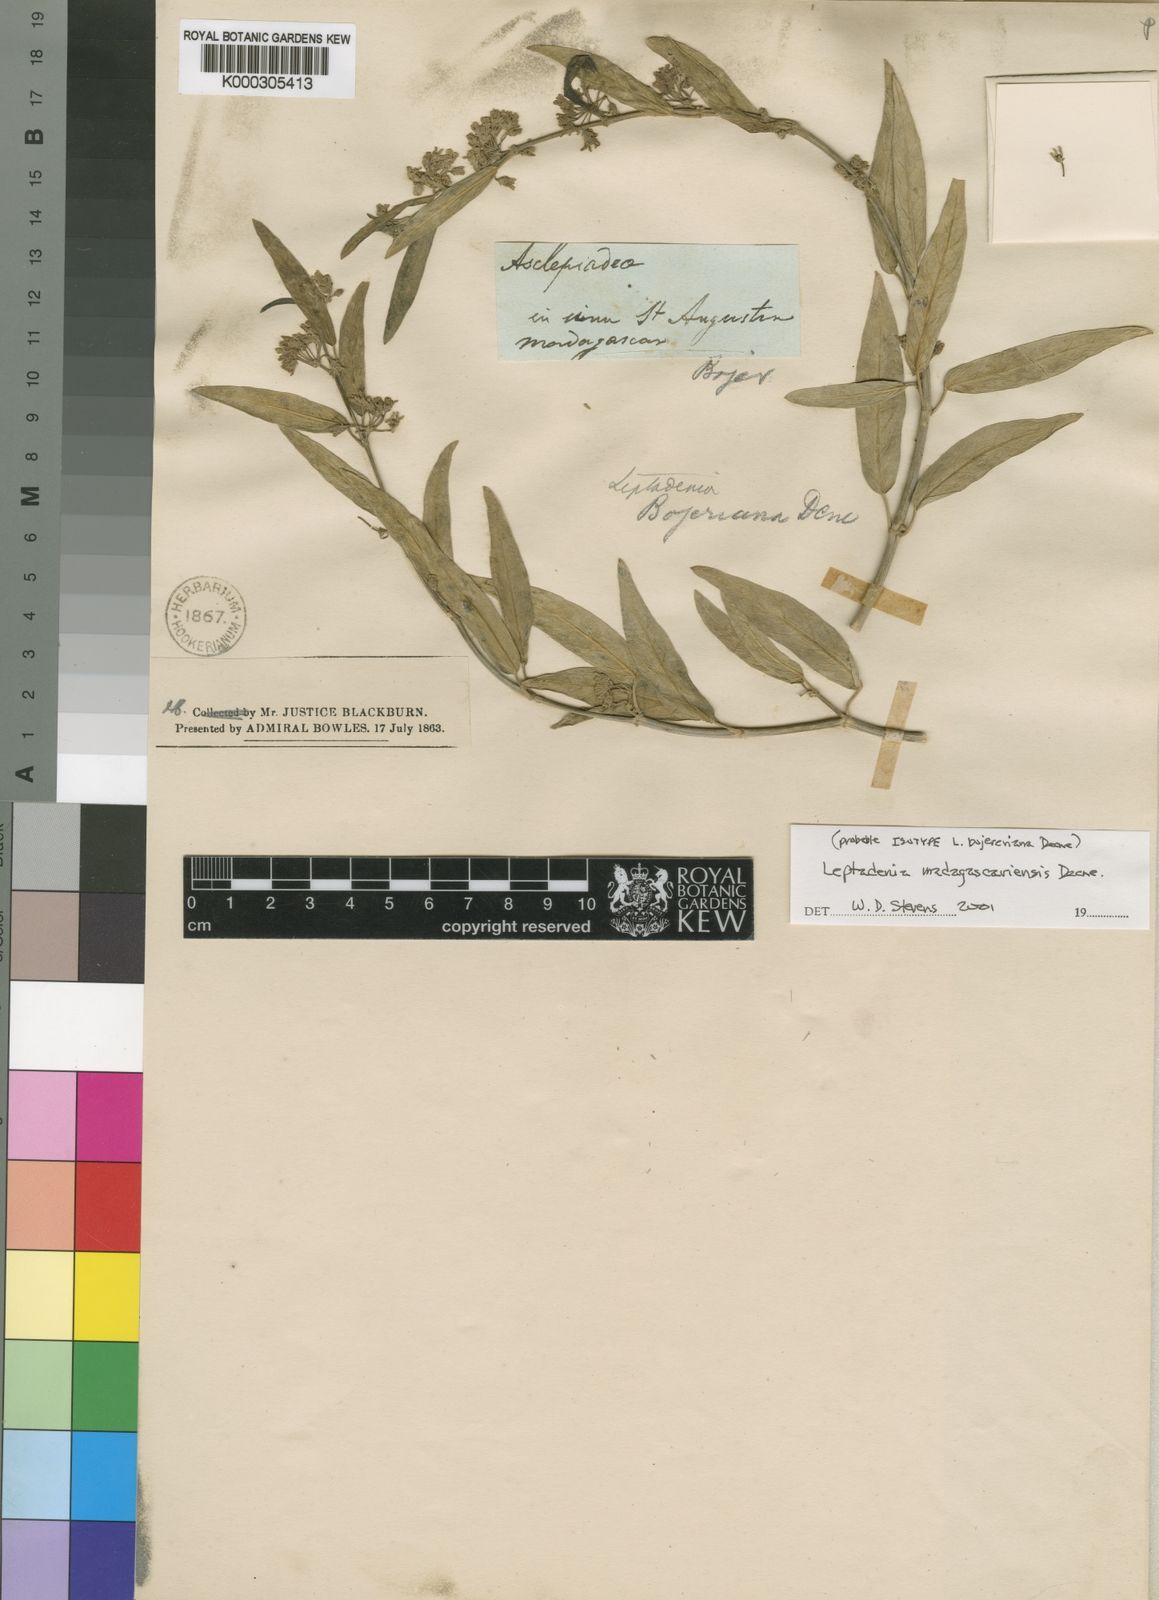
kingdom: Plantae
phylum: Tracheophyta
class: Magnoliopsida
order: Gentianales
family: Apocynaceae
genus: Leptadenia
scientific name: Leptadenia madagascariensis
